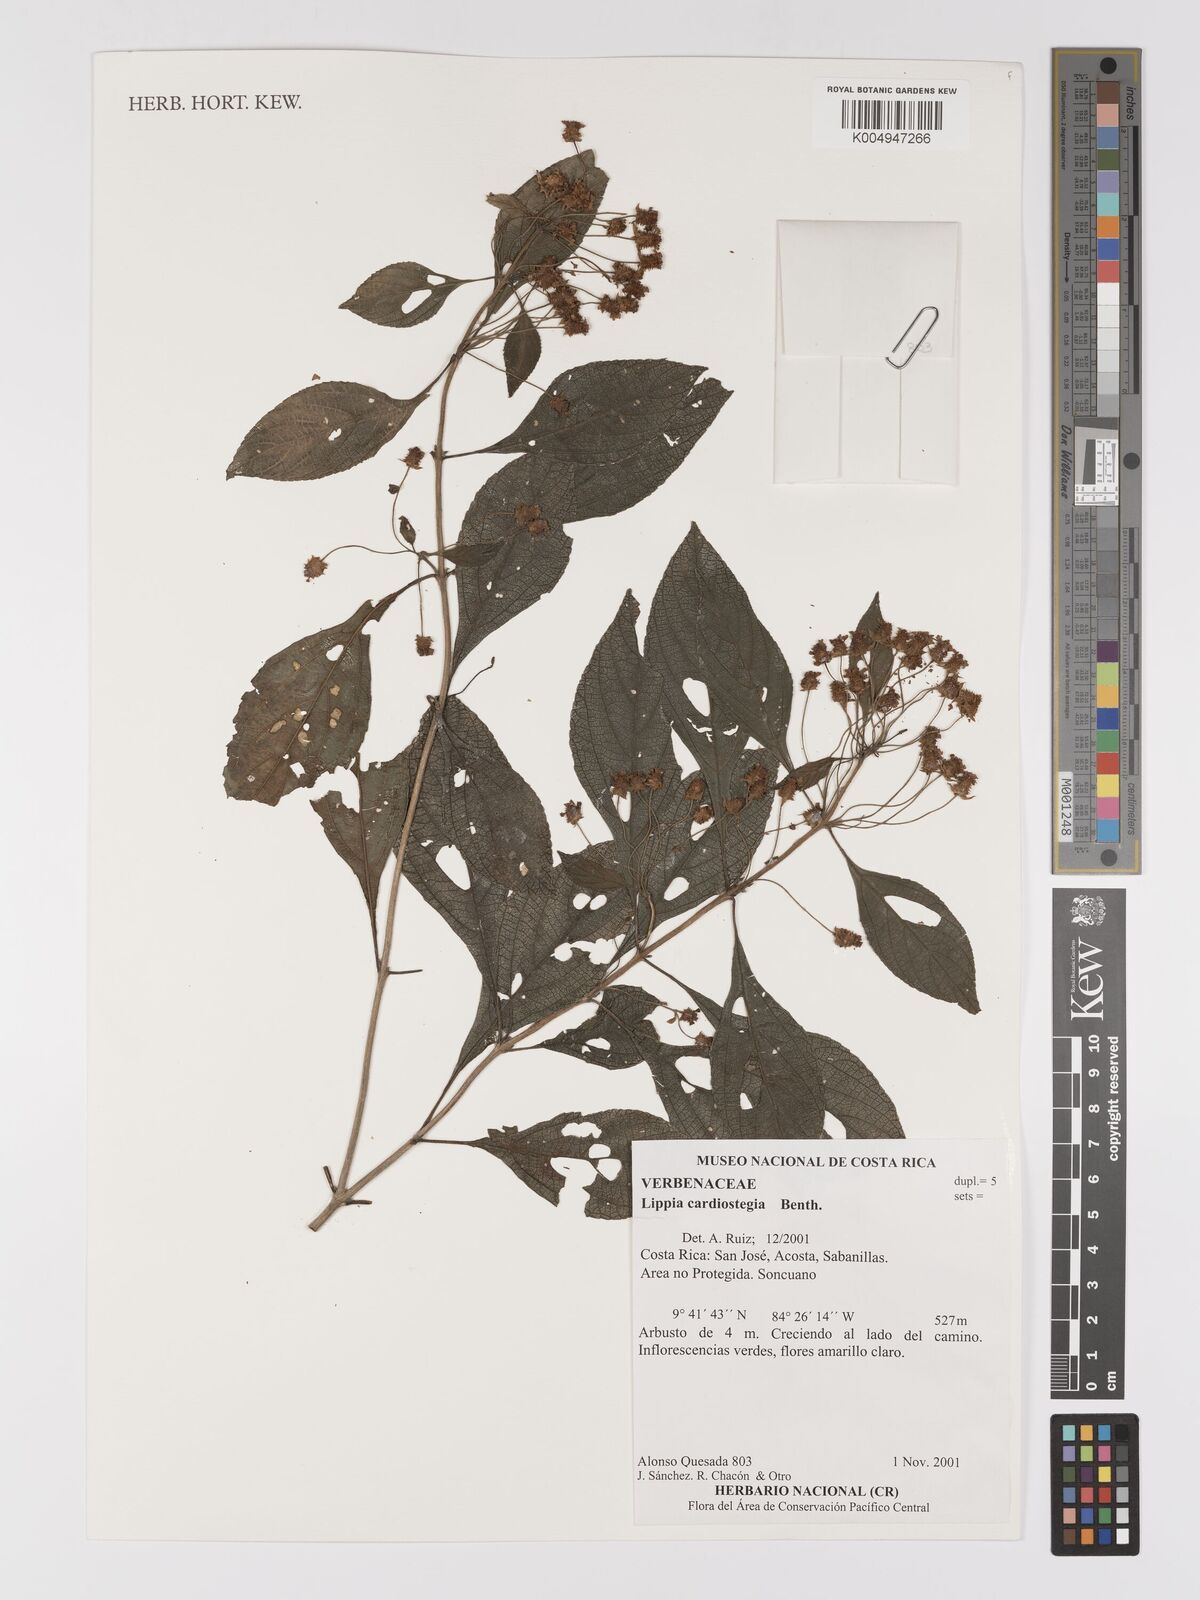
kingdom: Plantae
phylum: Tracheophyta
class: Magnoliopsida
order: Lamiales
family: Verbenaceae
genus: Lippia
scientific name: Lippia cardiostegia
